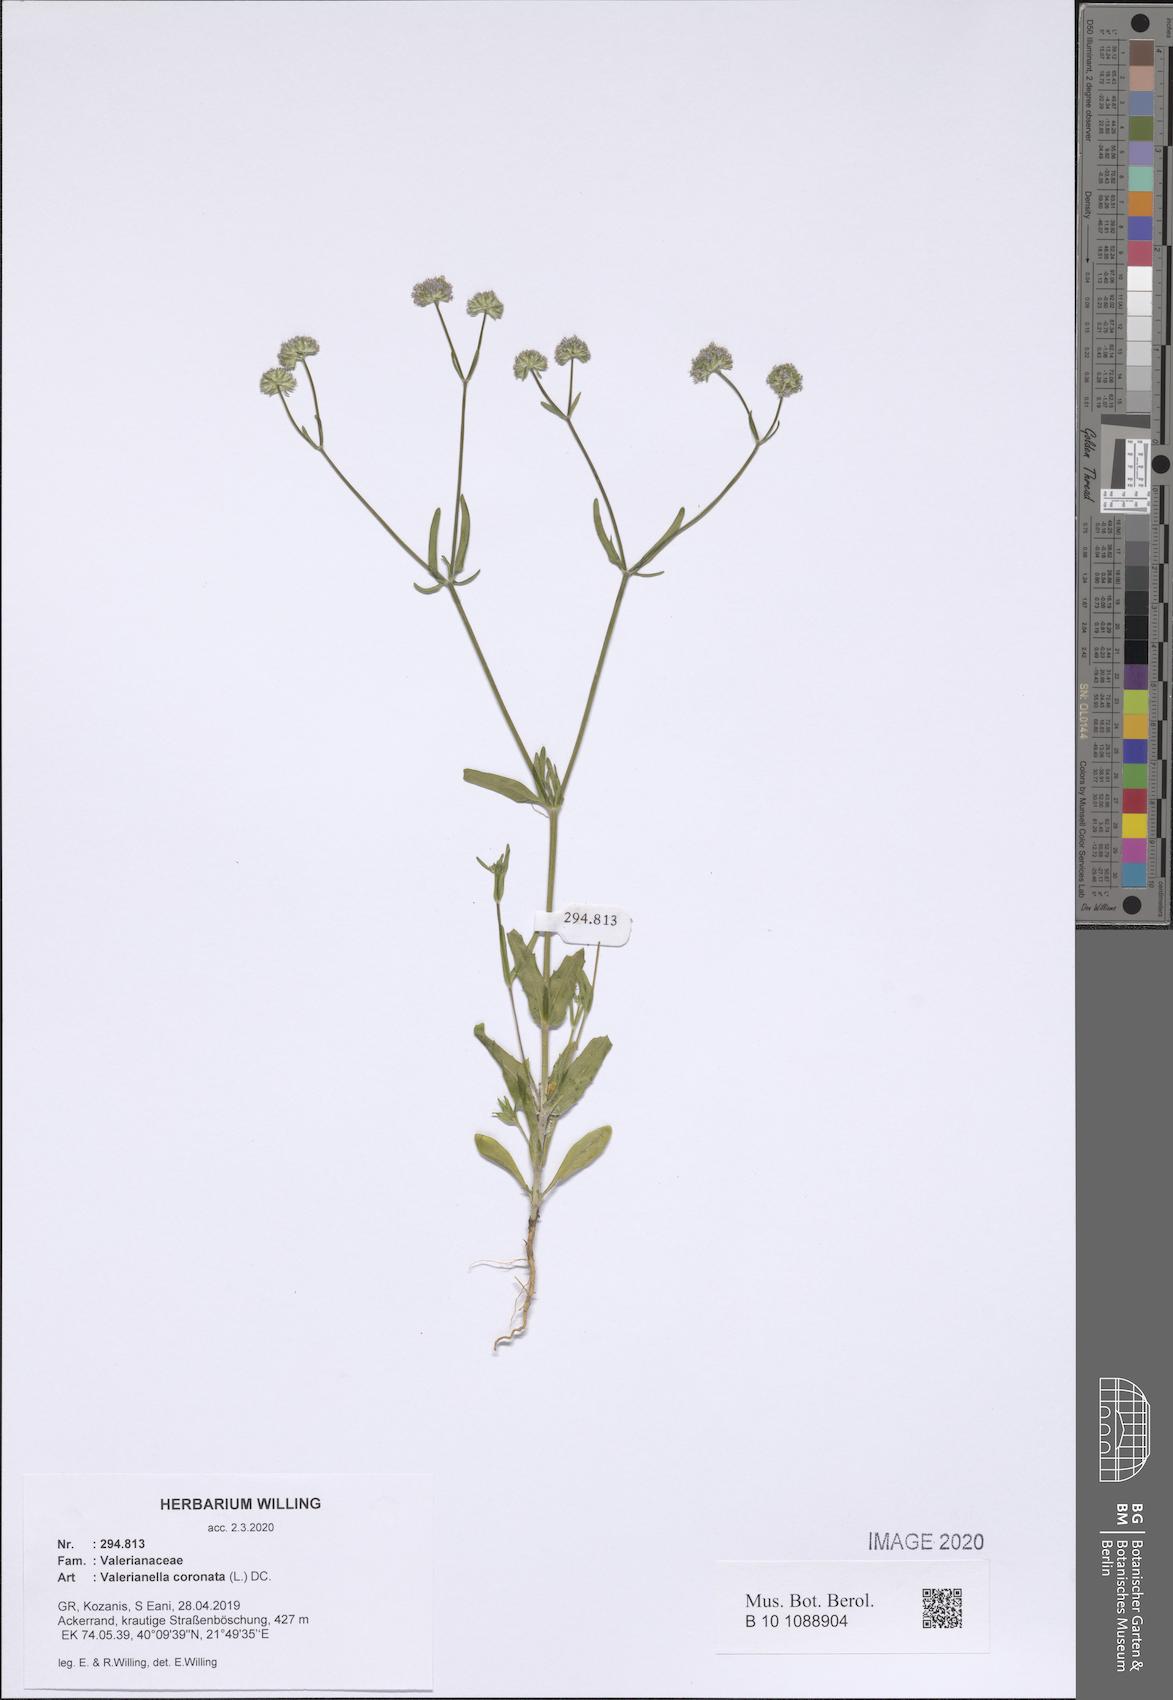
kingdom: Plantae
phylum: Tracheophyta
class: Magnoliopsida
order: Dipsacales
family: Caprifoliaceae
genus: Valerianella
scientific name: Valerianella coronata
